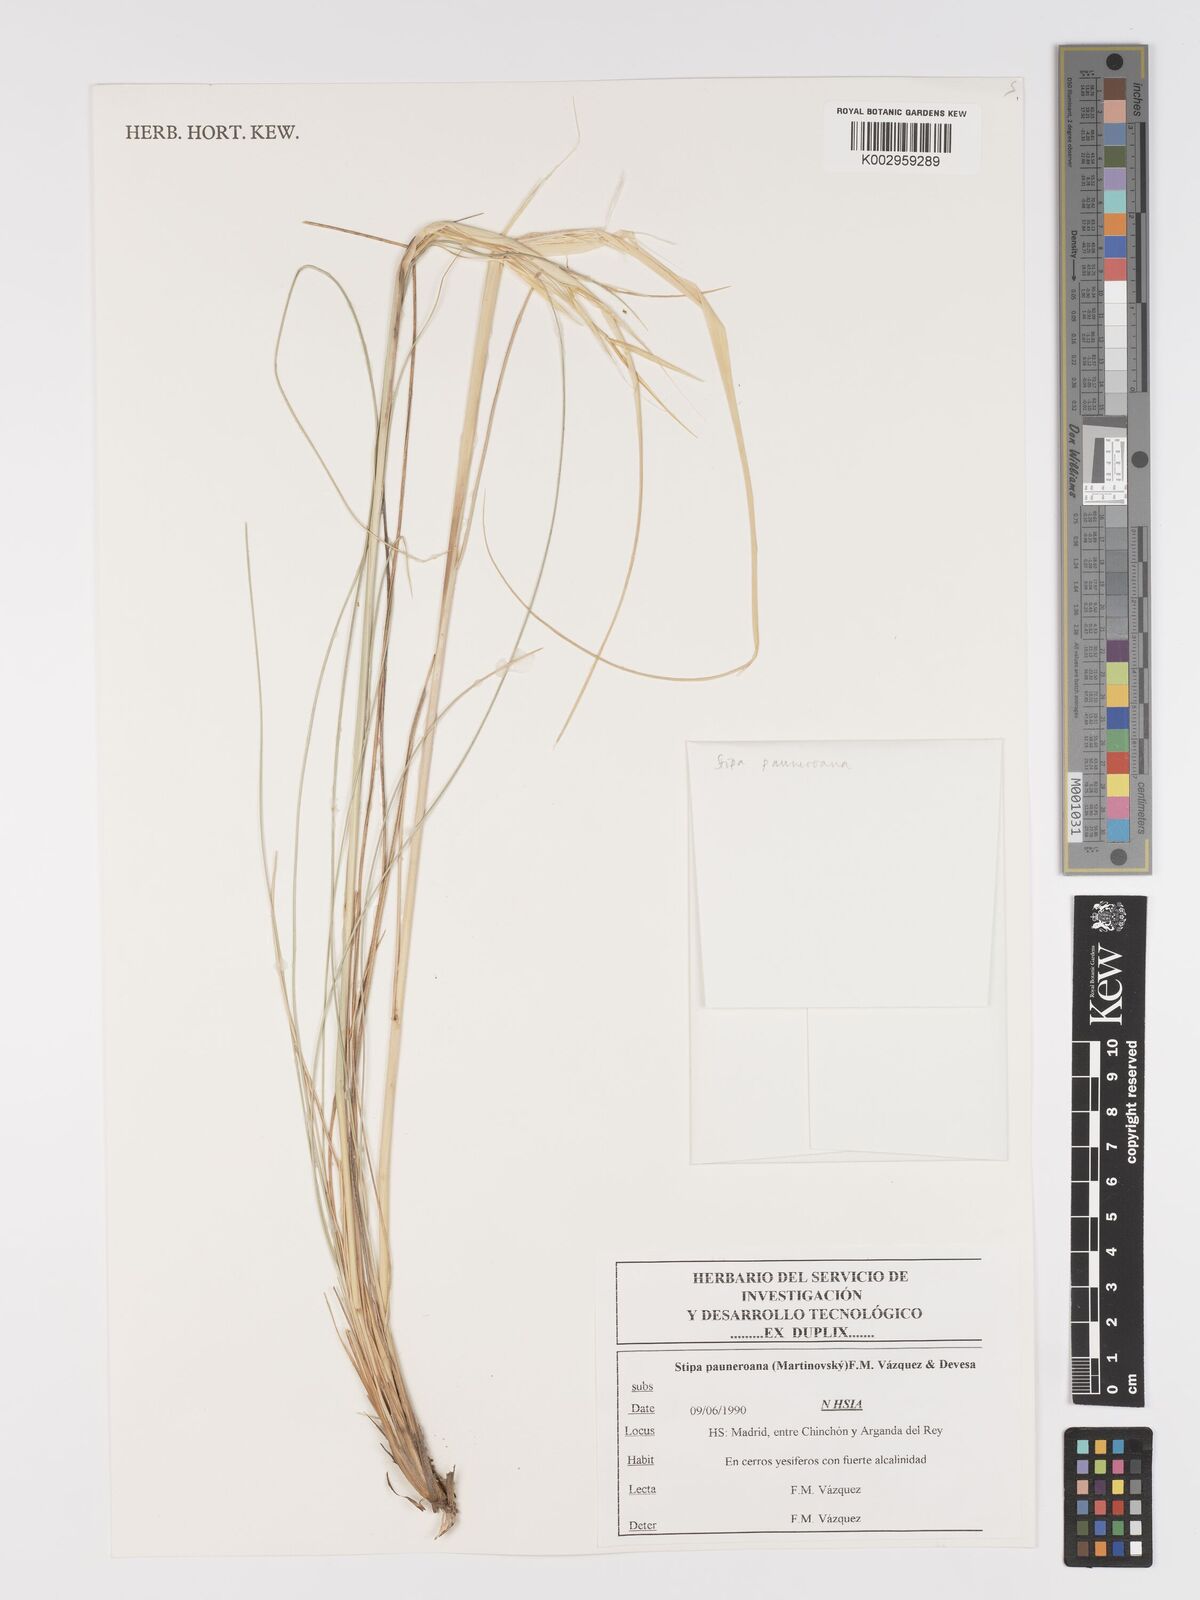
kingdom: Plantae
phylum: Tracheophyta
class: Liliopsida
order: Poales
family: Poaceae
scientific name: Poaceae
